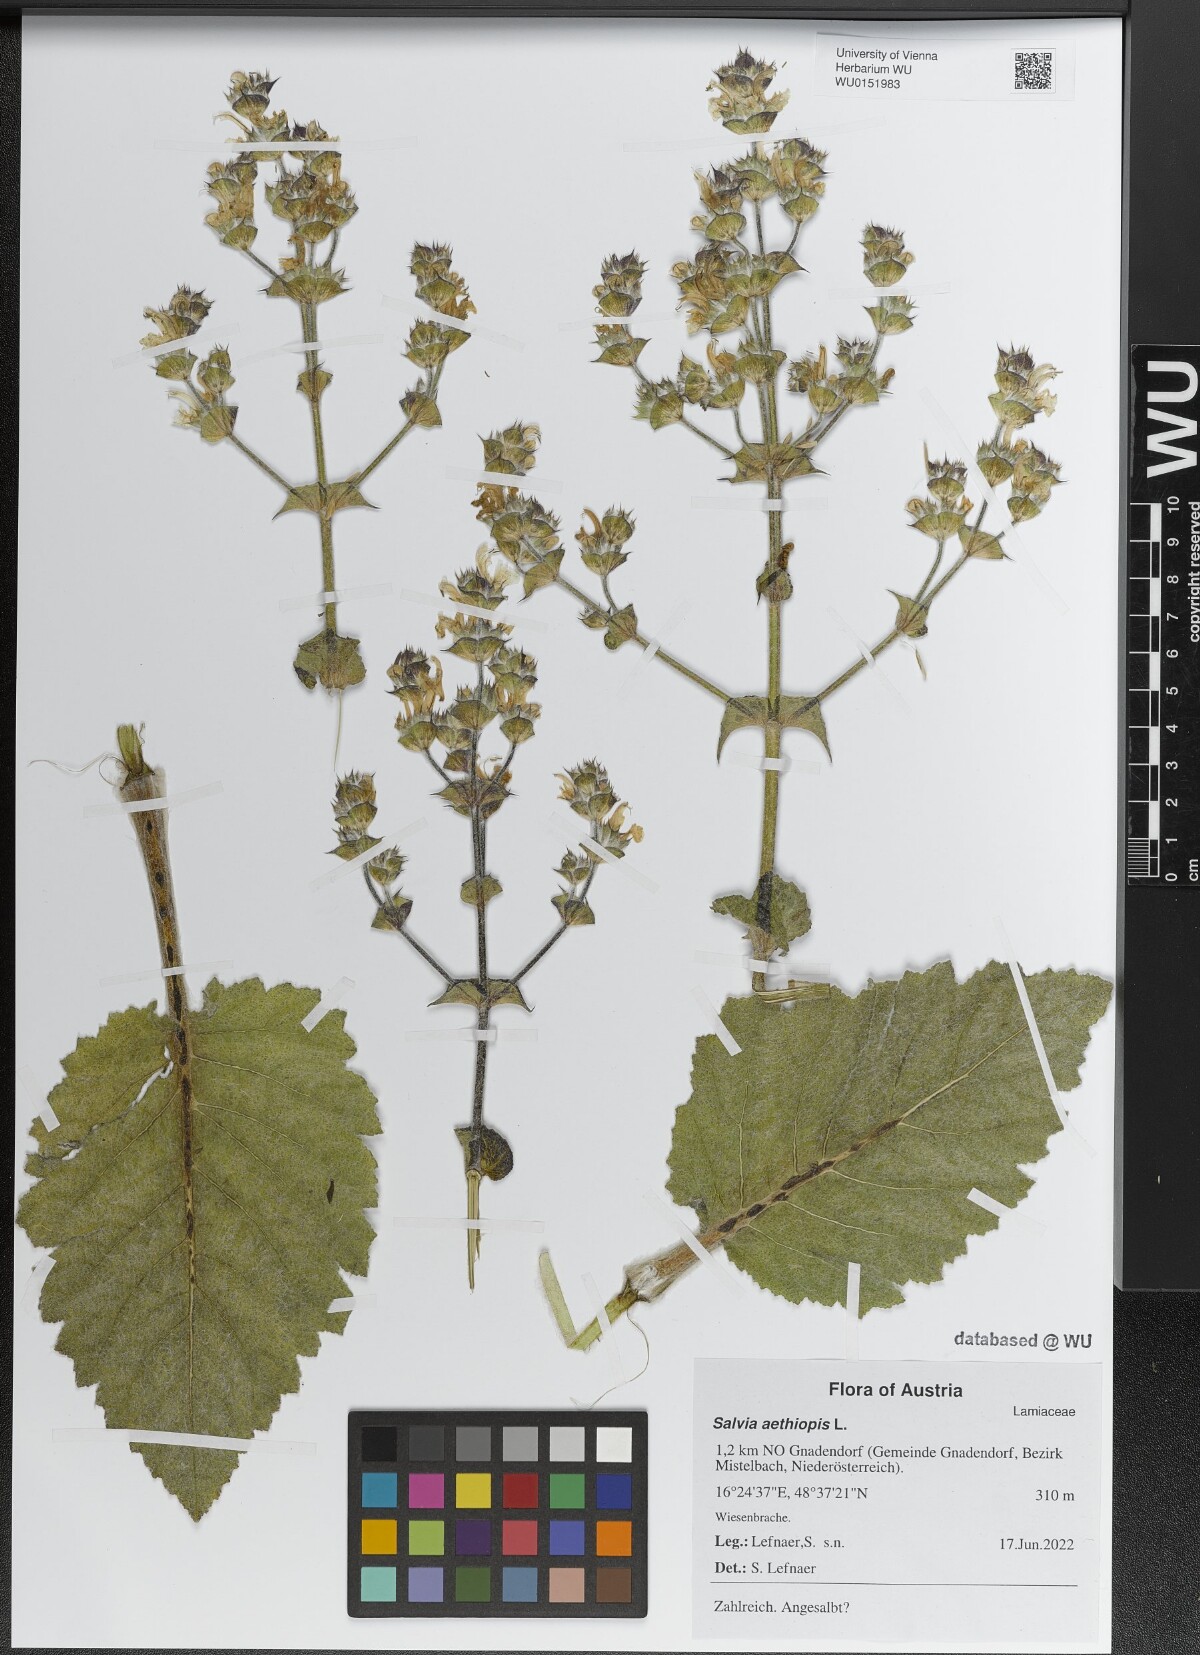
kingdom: Plantae
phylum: Tracheophyta
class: Magnoliopsida
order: Lamiales
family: Lamiaceae
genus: Salvia
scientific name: Salvia aethiopis
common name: Mediterranean sage
